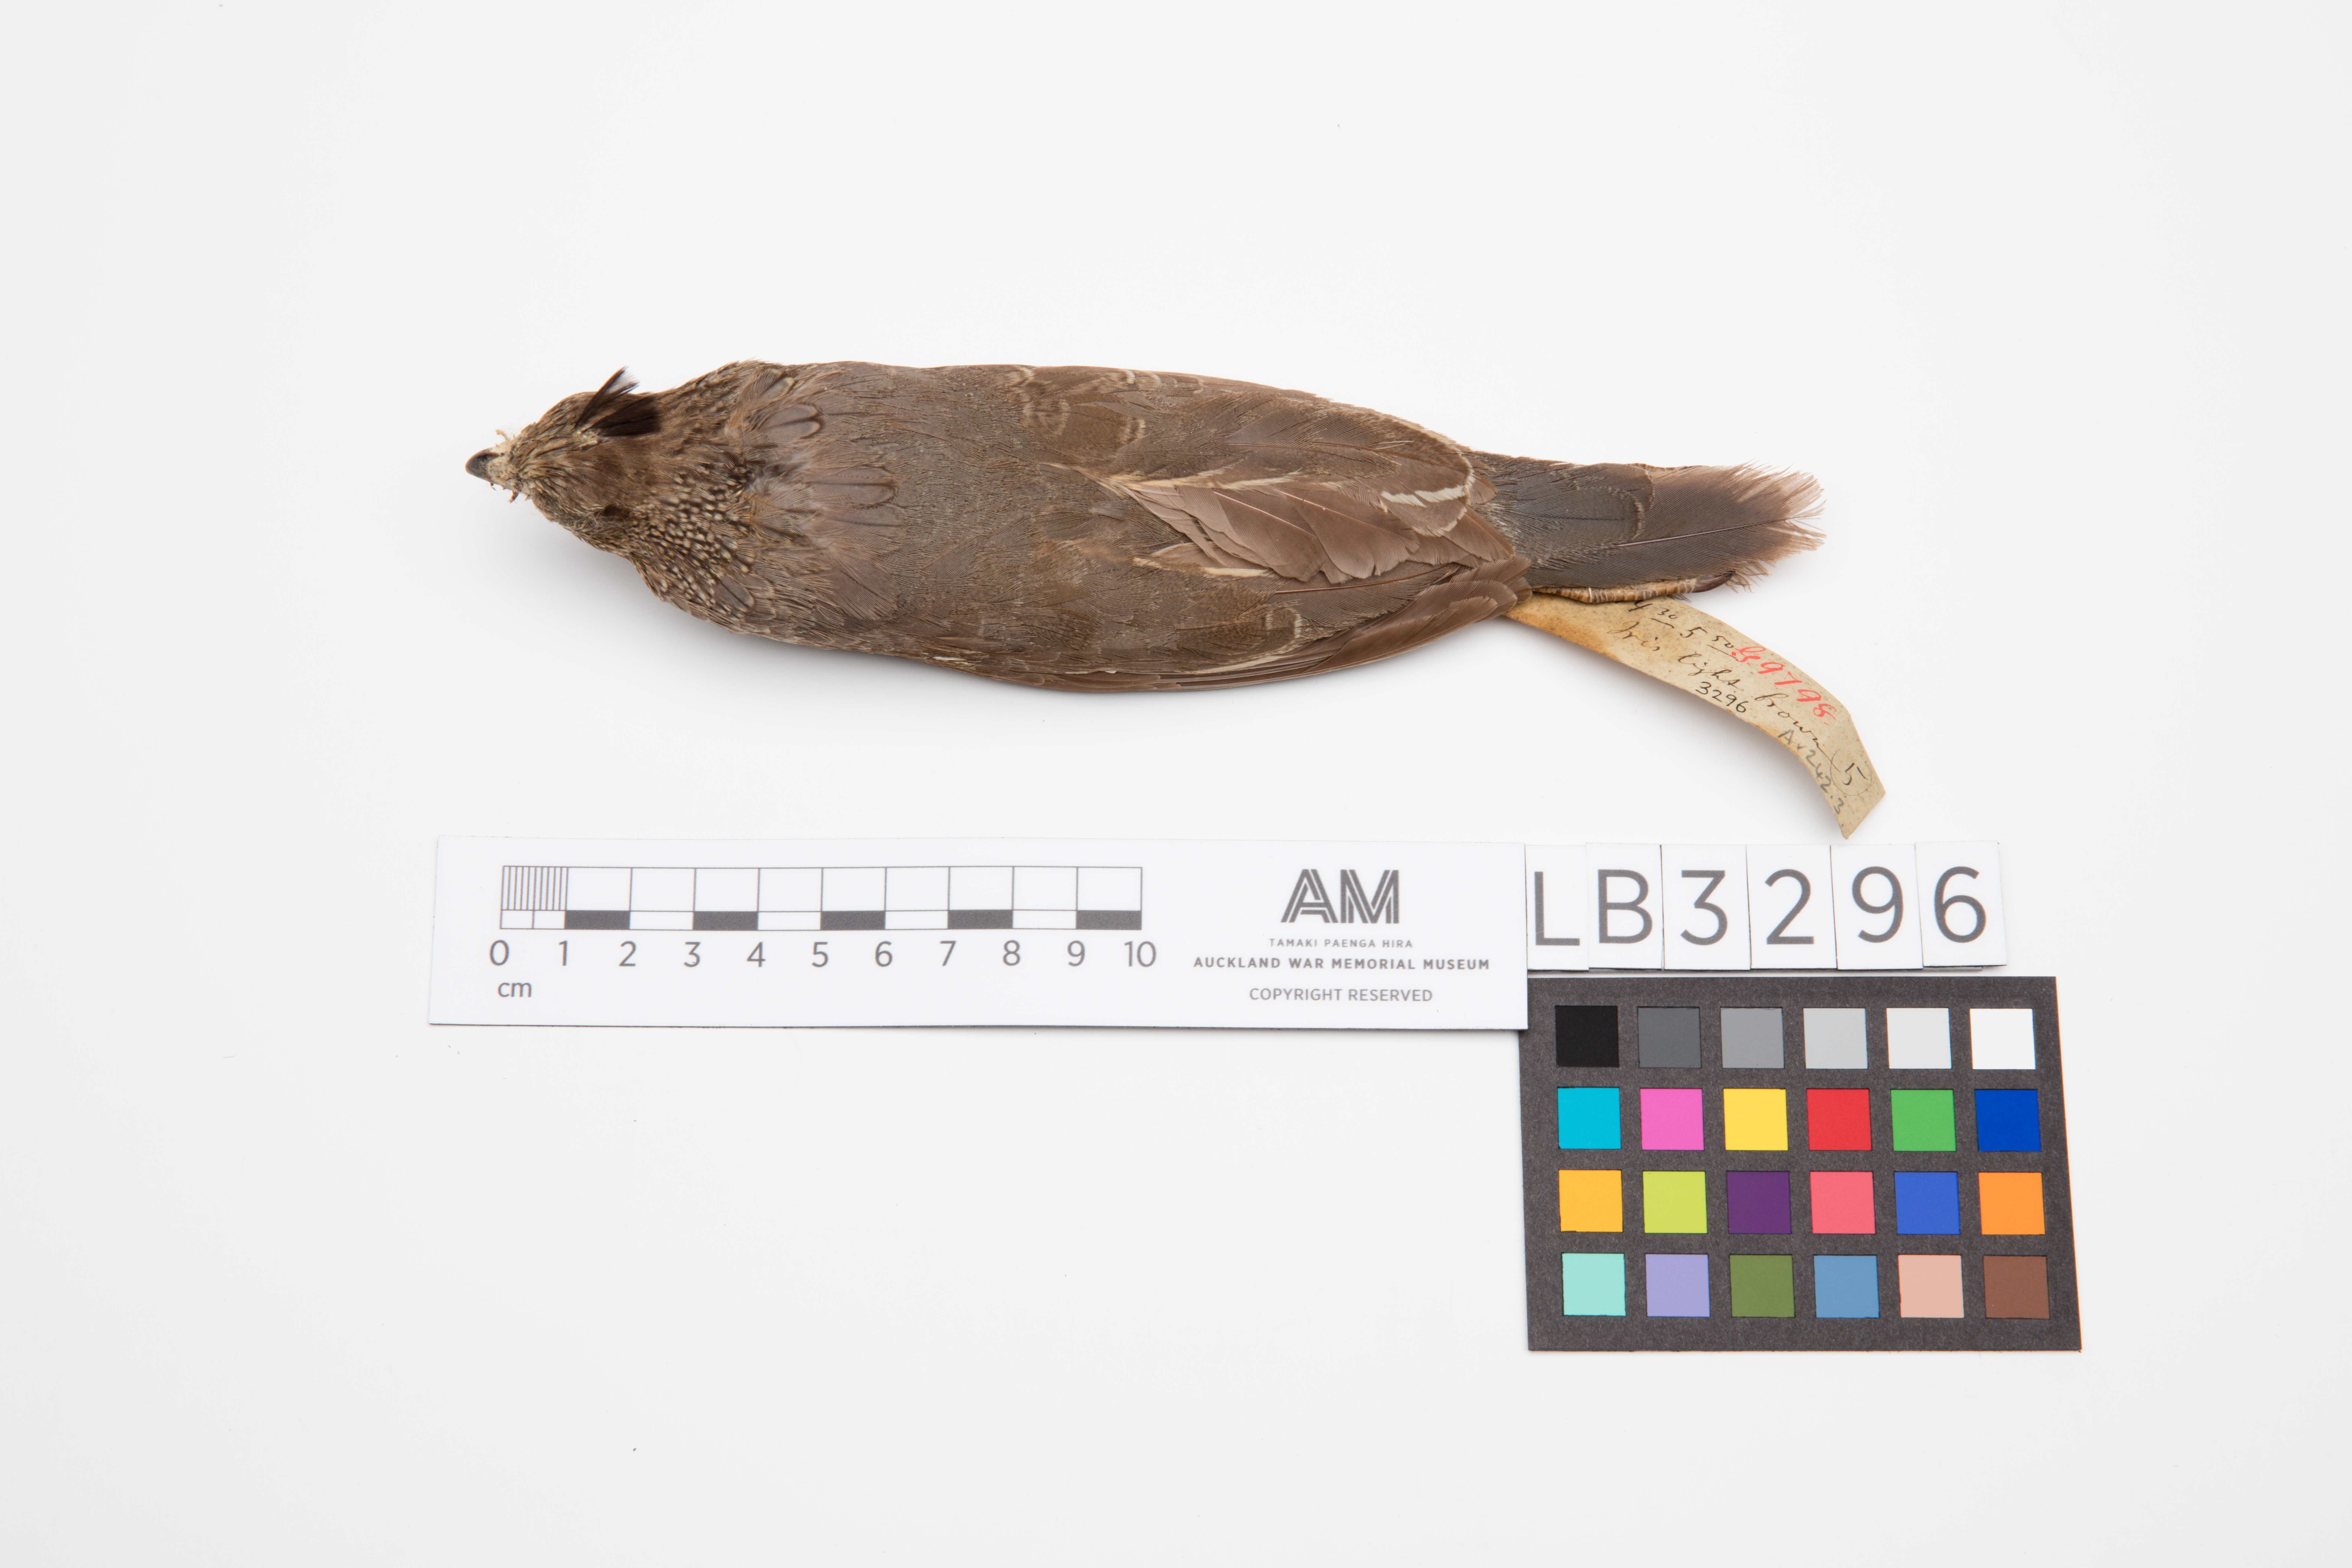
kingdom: Animalia
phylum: Chordata
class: Aves
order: Galliformes
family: Odontophoridae
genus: Callipepla
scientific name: Callipepla californica
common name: California quail
